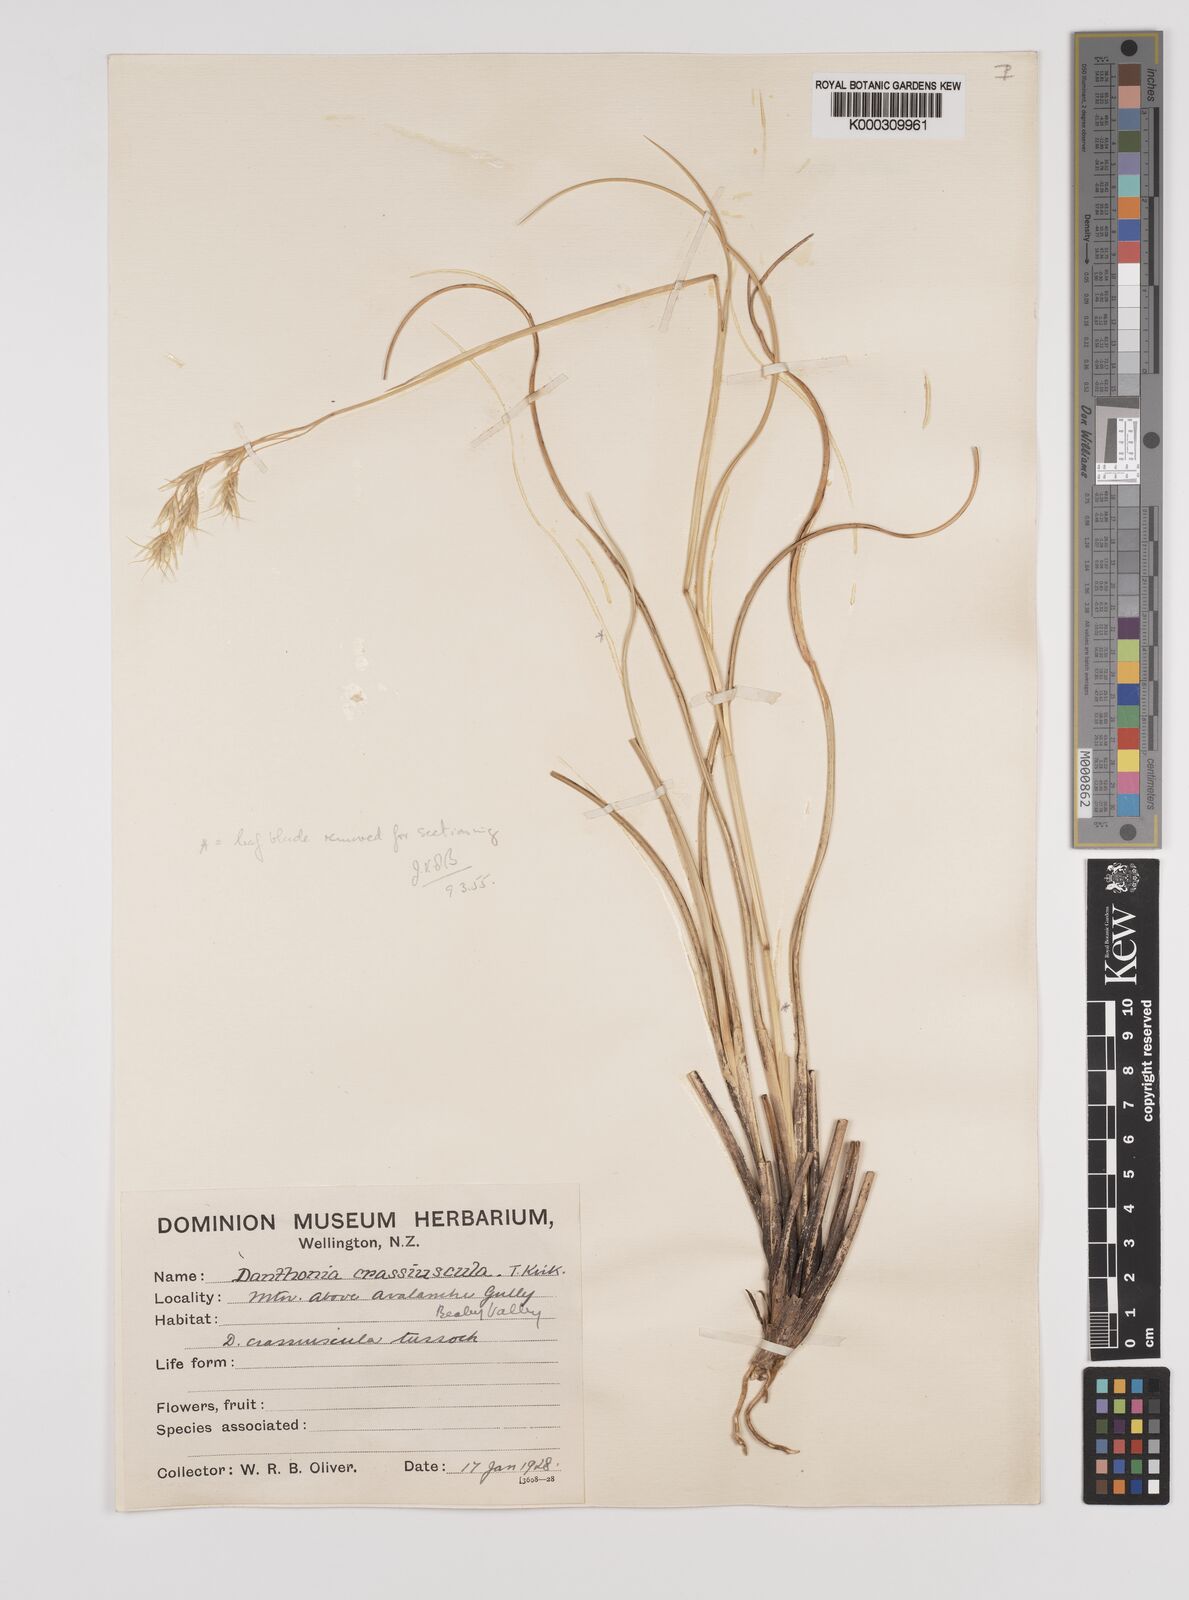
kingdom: Plantae
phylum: Tracheophyta
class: Liliopsida
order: Poales
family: Poaceae
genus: Chionochloa
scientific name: Chionochloa crassiuscula
